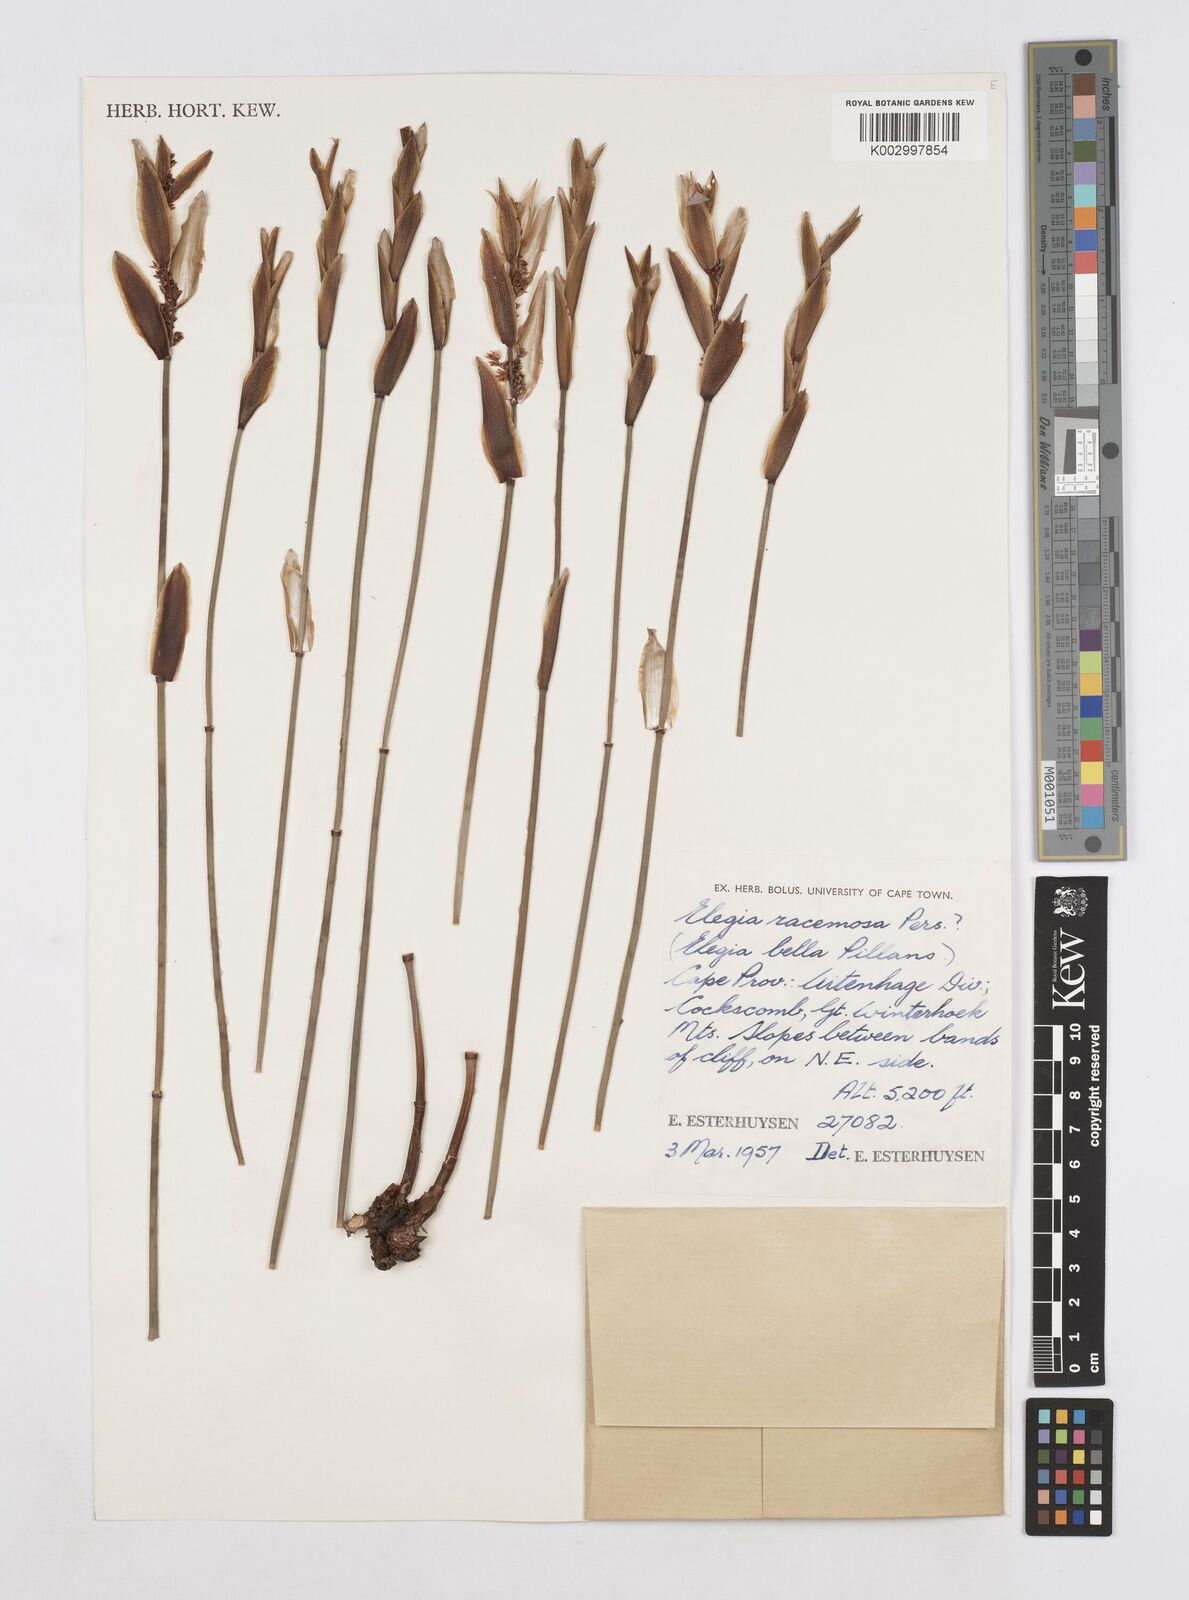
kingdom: Plantae
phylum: Tracheophyta
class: Liliopsida
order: Poales
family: Restionaceae
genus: Elegia
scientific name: Elegia racemosa
